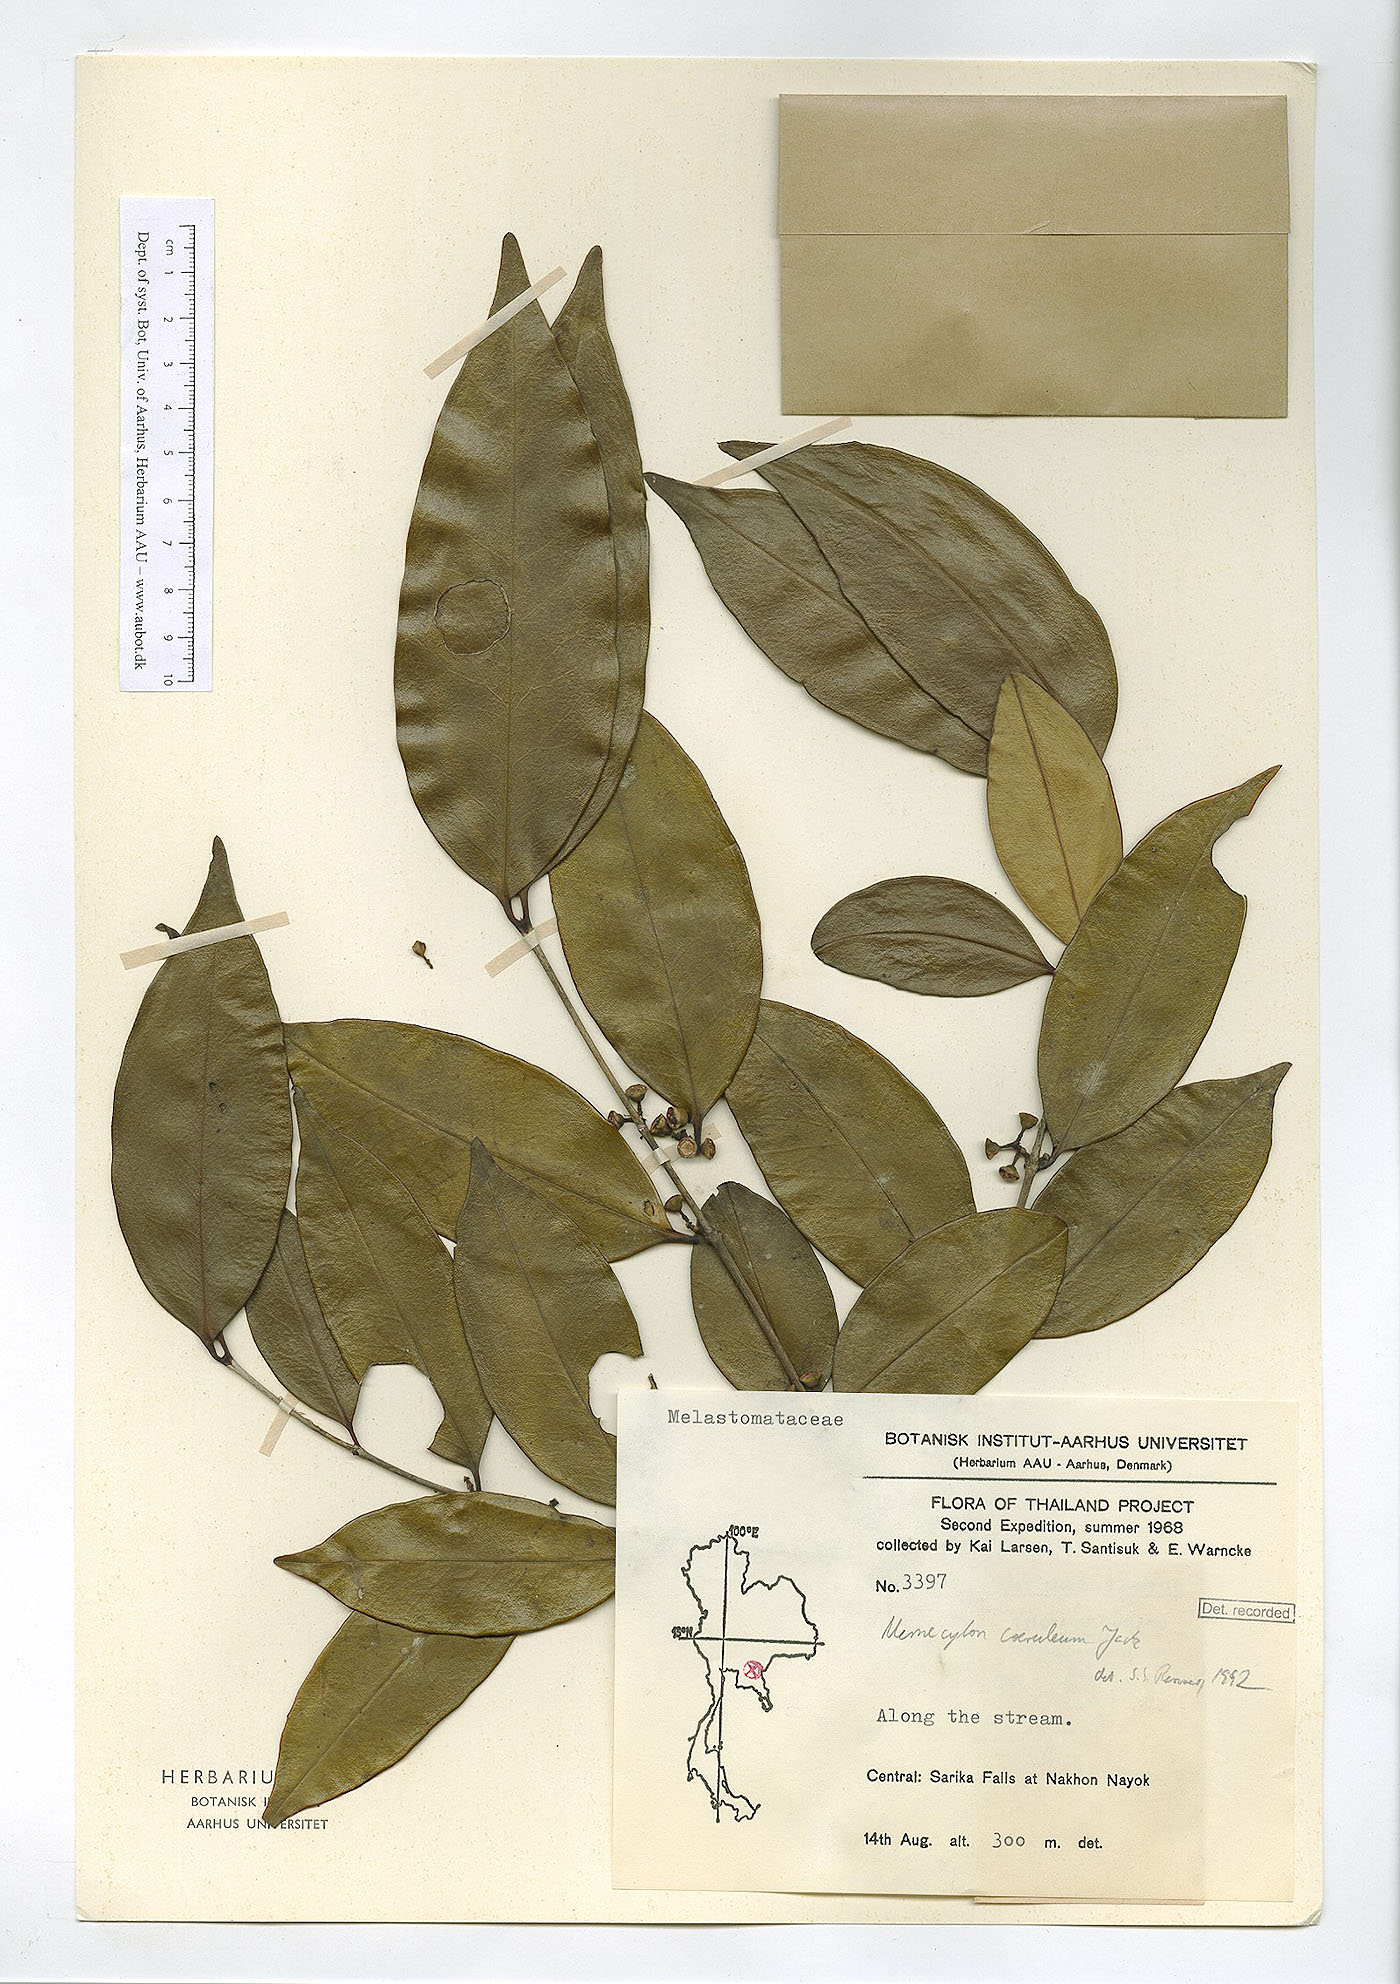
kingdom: Plantae
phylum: Tracheophyta
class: Magnoliopsida
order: Myrtales
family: Melastomataceae
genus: Memecylon
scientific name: Memecylon caeruleum
